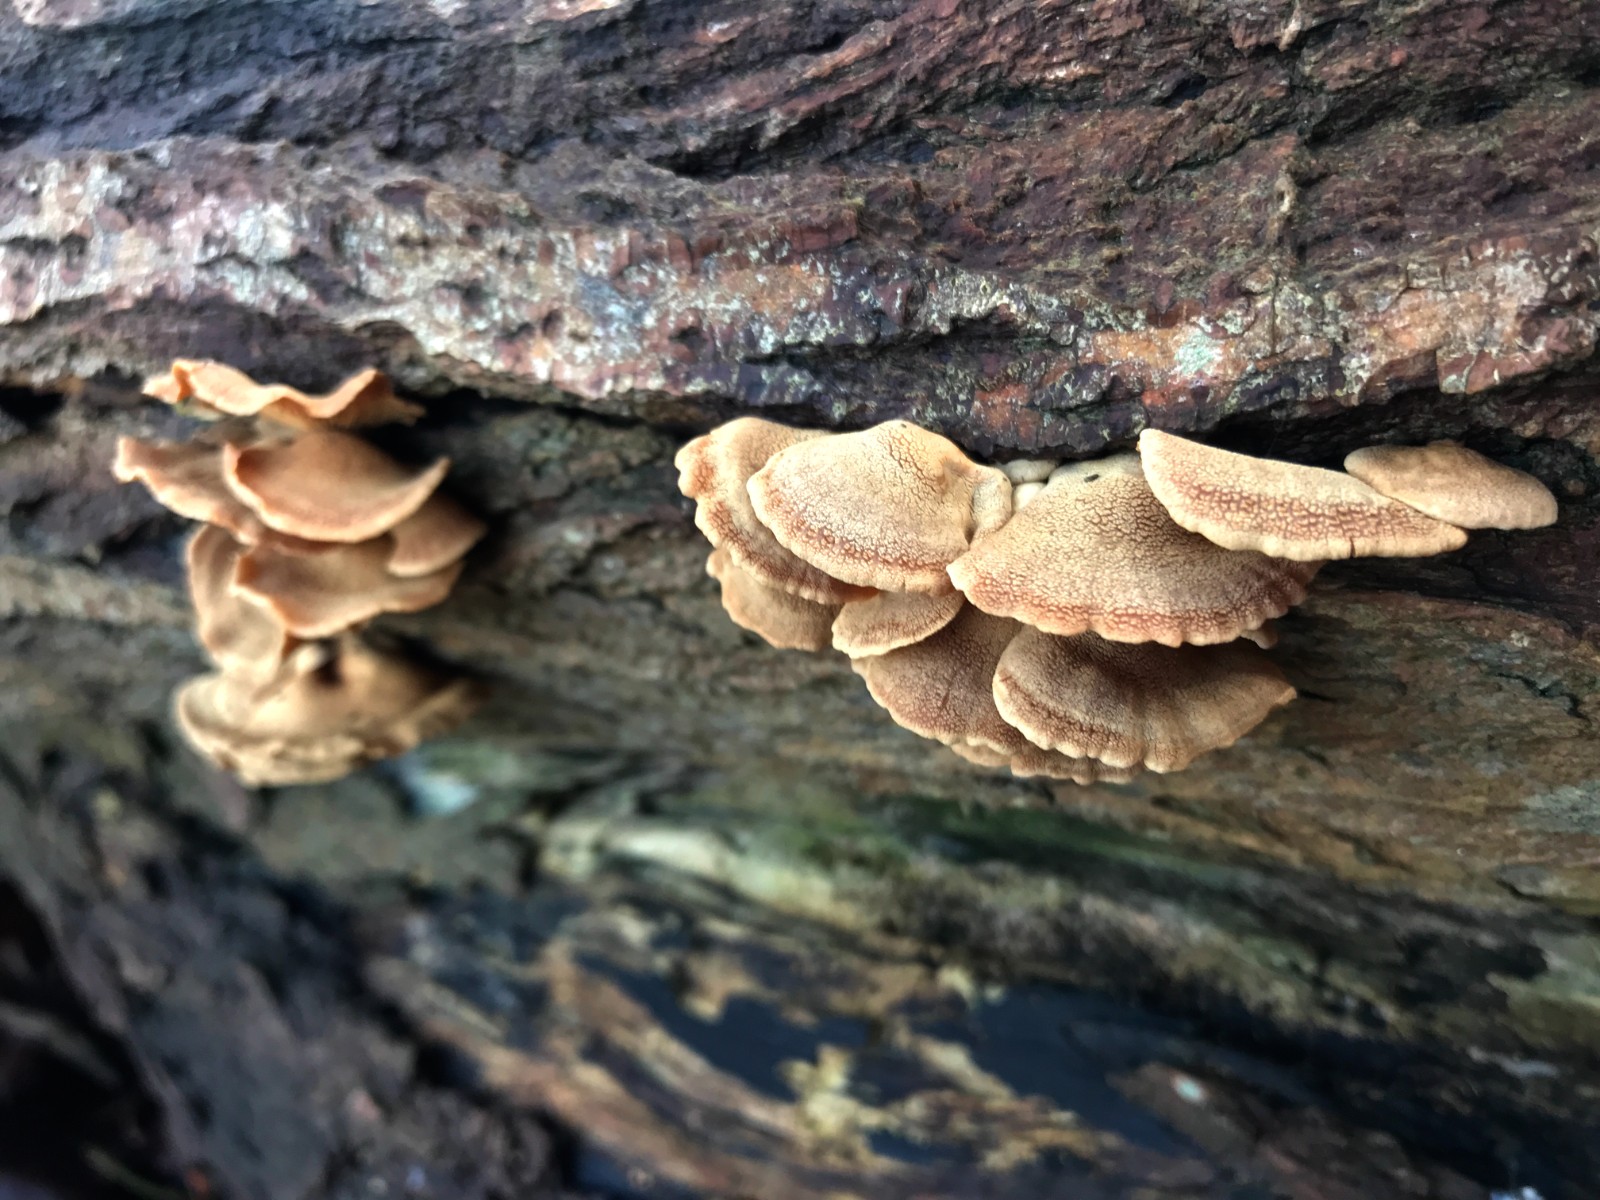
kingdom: Fungi
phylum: Basidiomycota
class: Agaricomycetes
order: Agaricales
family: Mycenaceae
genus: Panellus
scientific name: Panellus stipticus
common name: kliddet epaulethat
